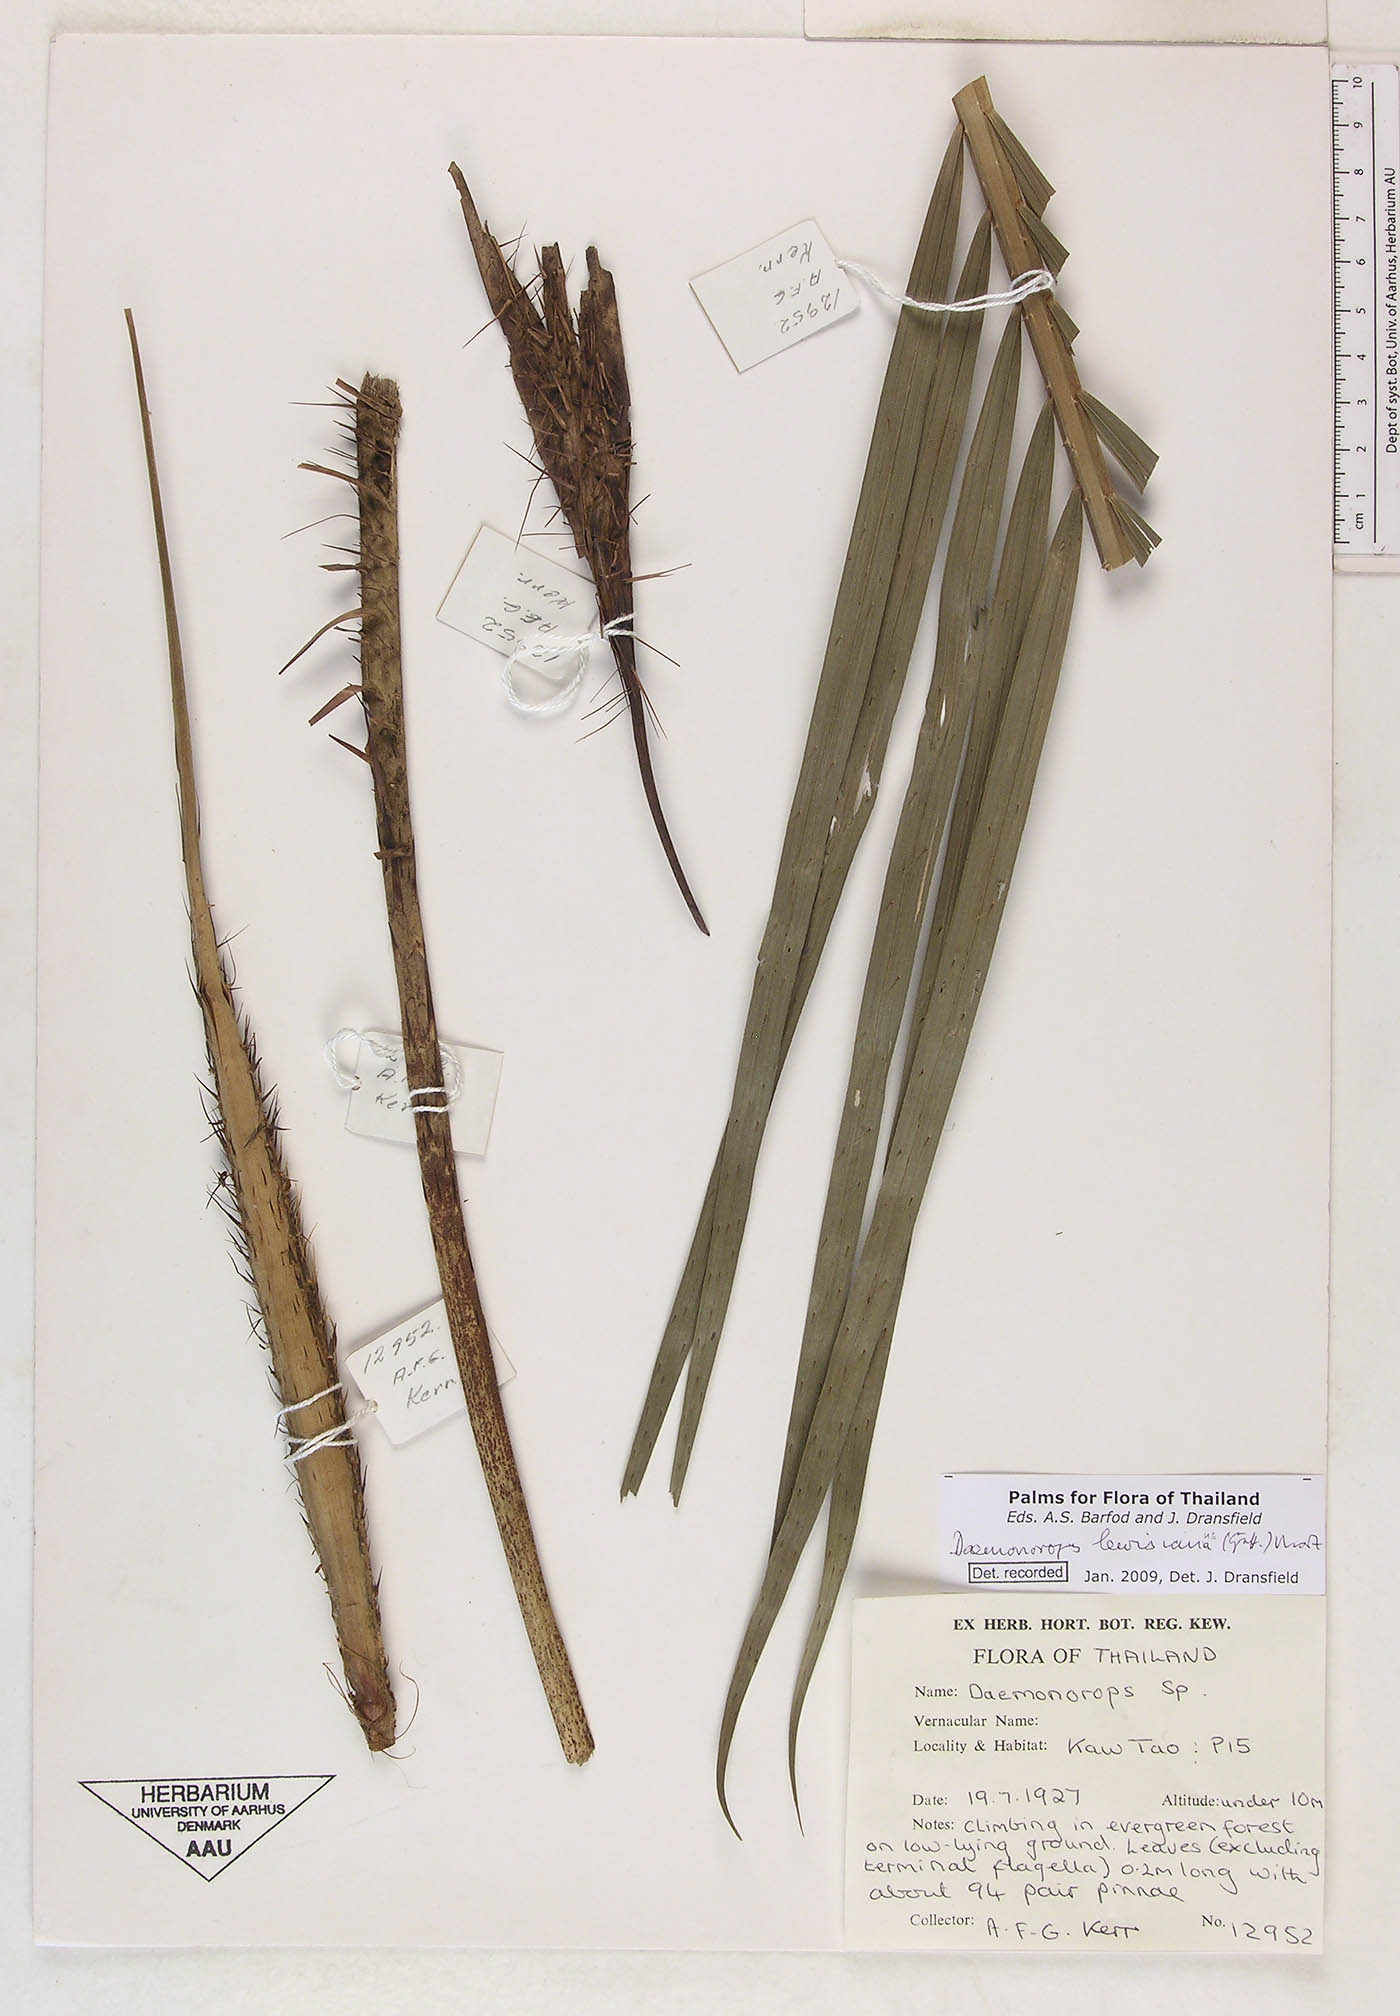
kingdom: Plantae
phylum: Tracheophyta
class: Liliopsida
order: Arecales
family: Arecaceae
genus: Calamus
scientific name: Calamus melanochaetes
